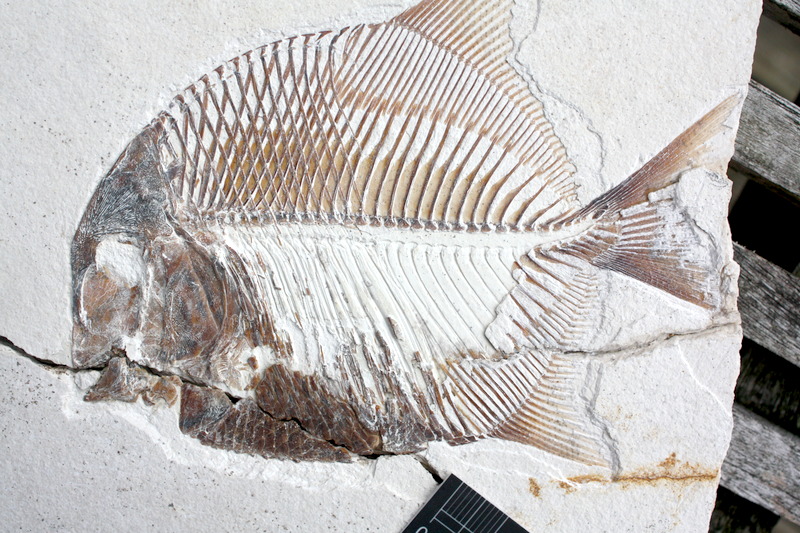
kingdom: Animalia
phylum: Chordata
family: Pycnodontidae
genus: Turboscinetes
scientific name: Turboscinetes egertoni
